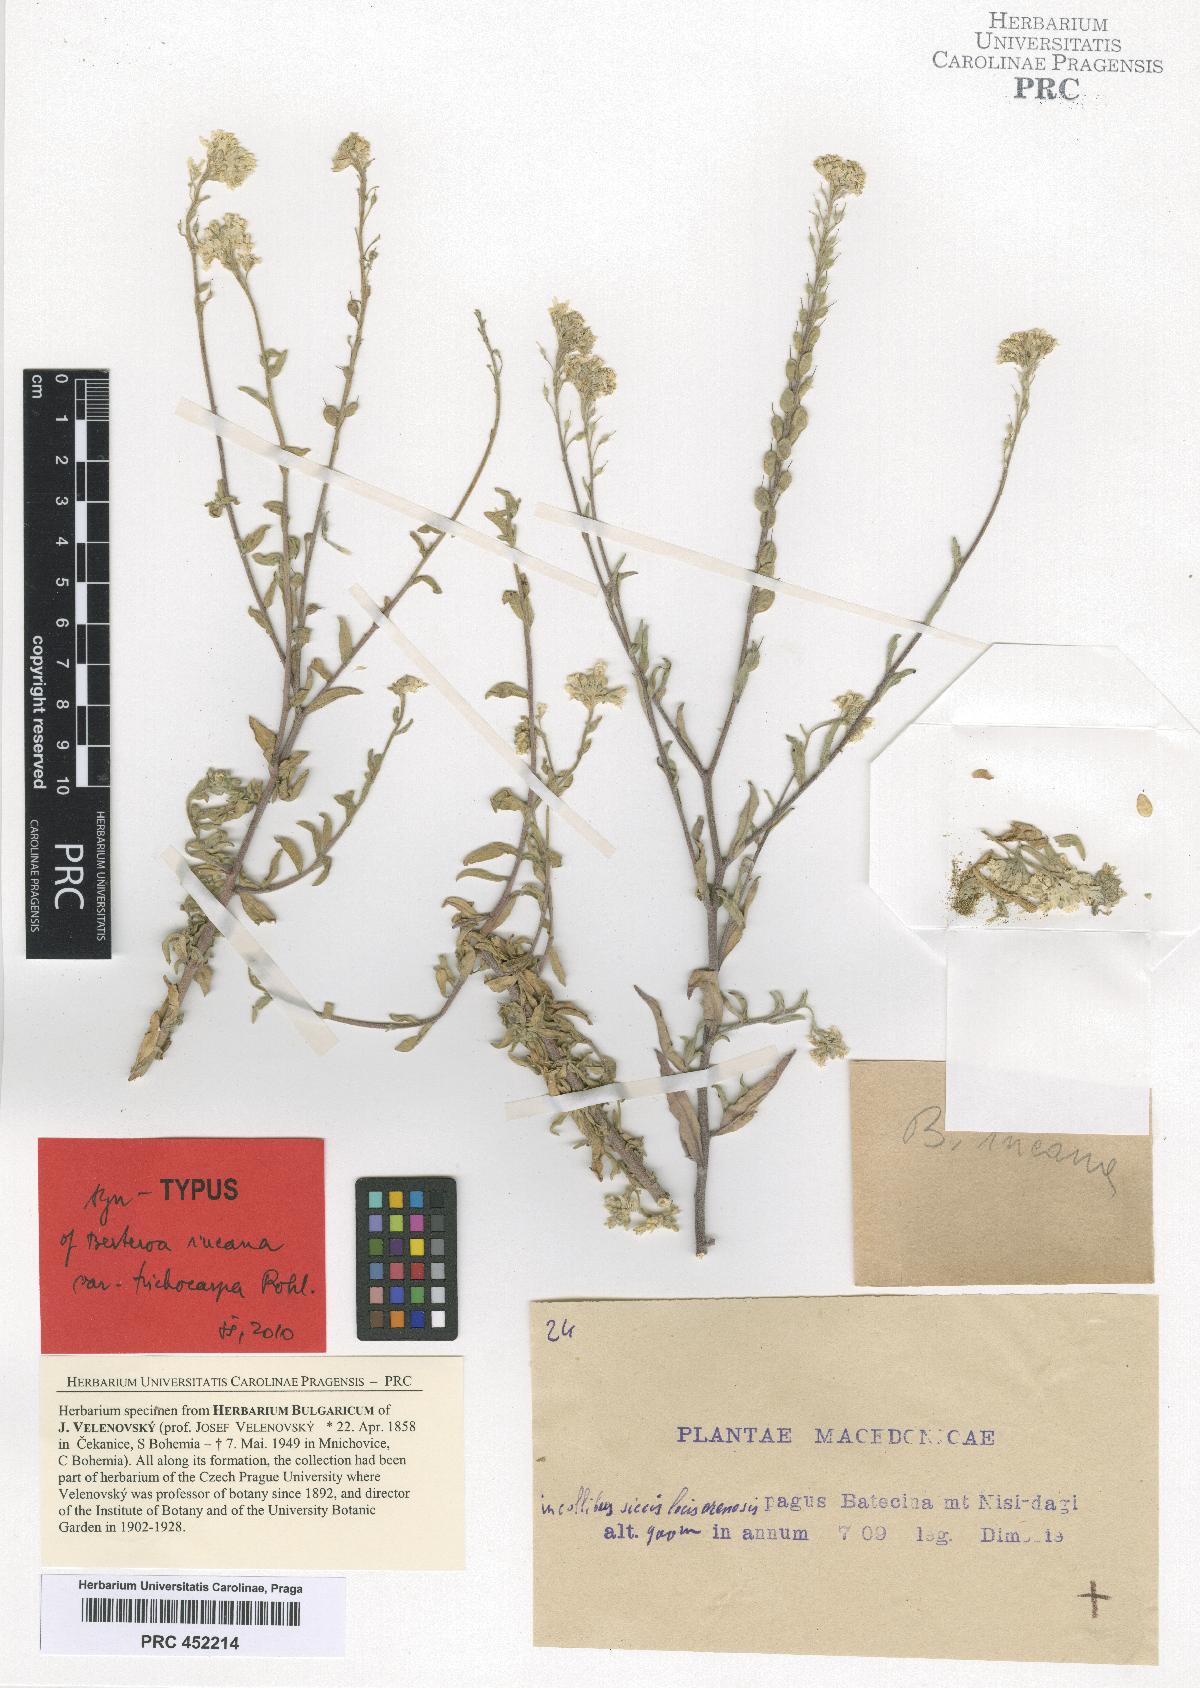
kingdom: Plantae
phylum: Tracheophyta
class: Magnoliopsida
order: Brassicales
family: Brassicaceae
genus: Berteroa
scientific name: Berteroa incana
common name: Hoary alison
